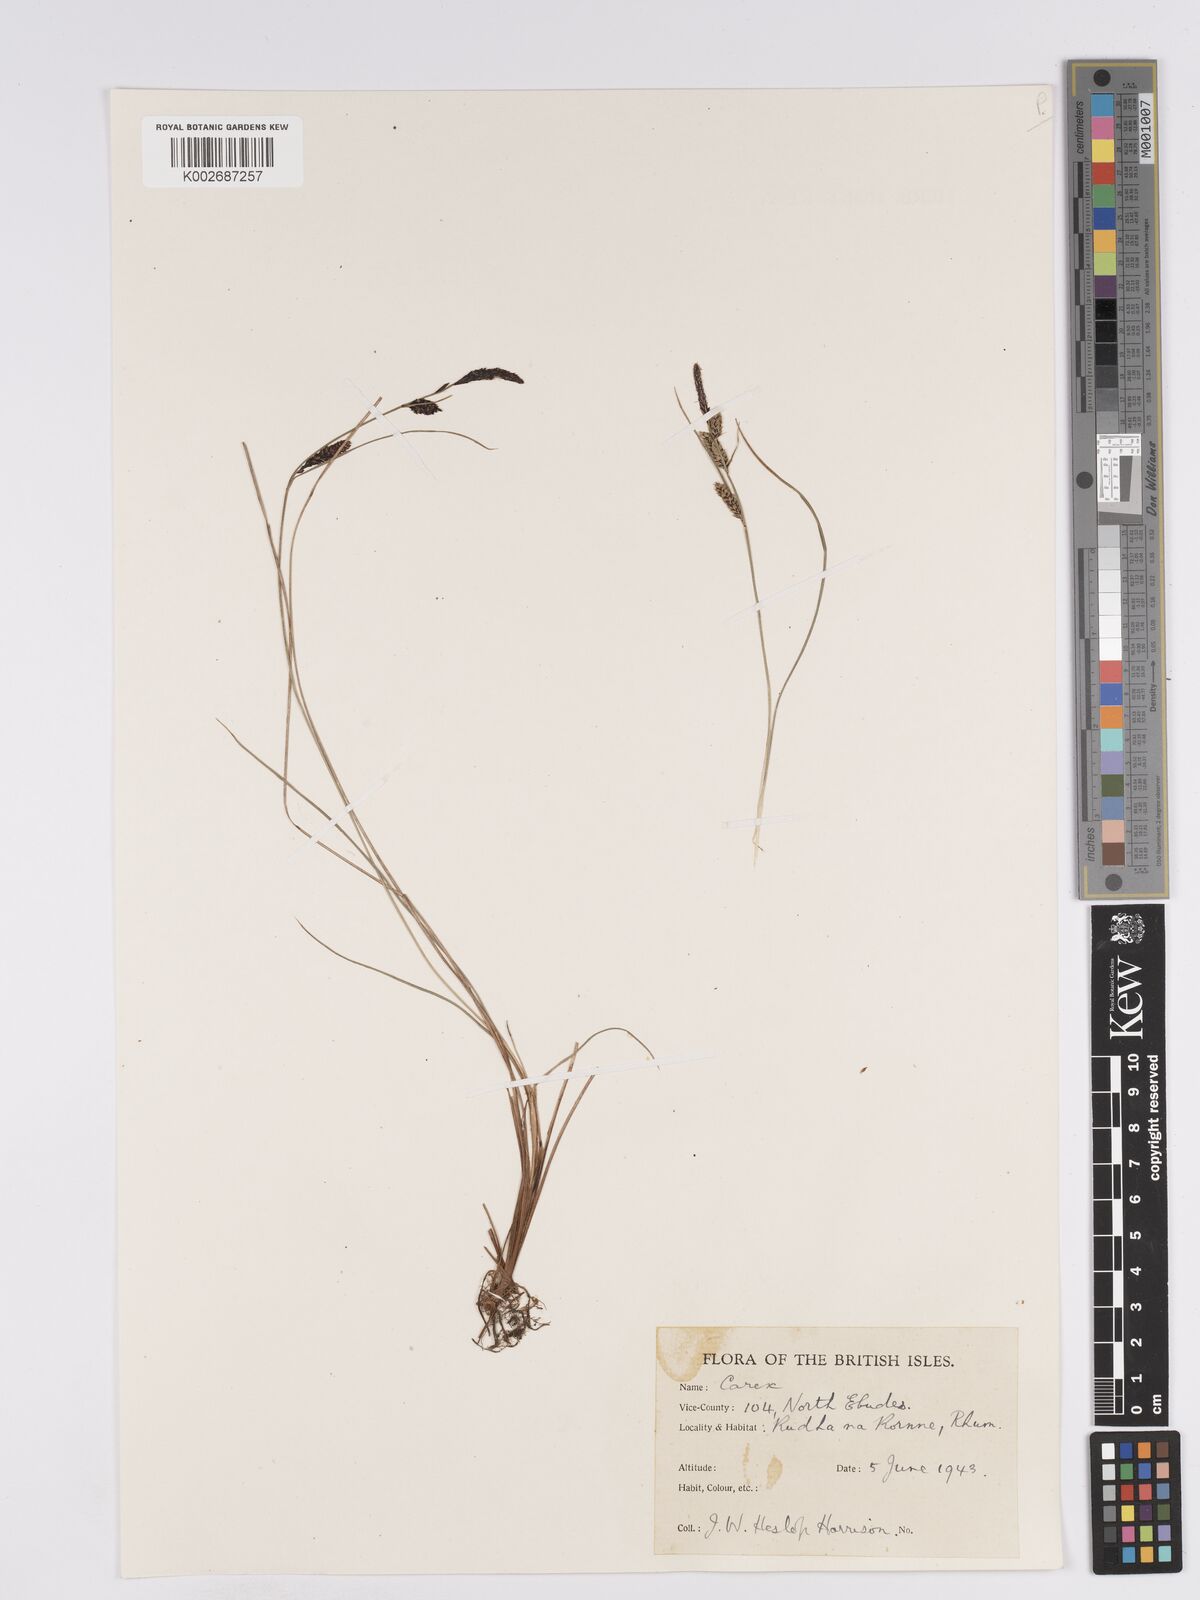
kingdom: Plantae
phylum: Tracheophyta
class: Liliopsida
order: Poales
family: Cyperaceae
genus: Carex
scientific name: Carex nigra
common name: Common sedge
